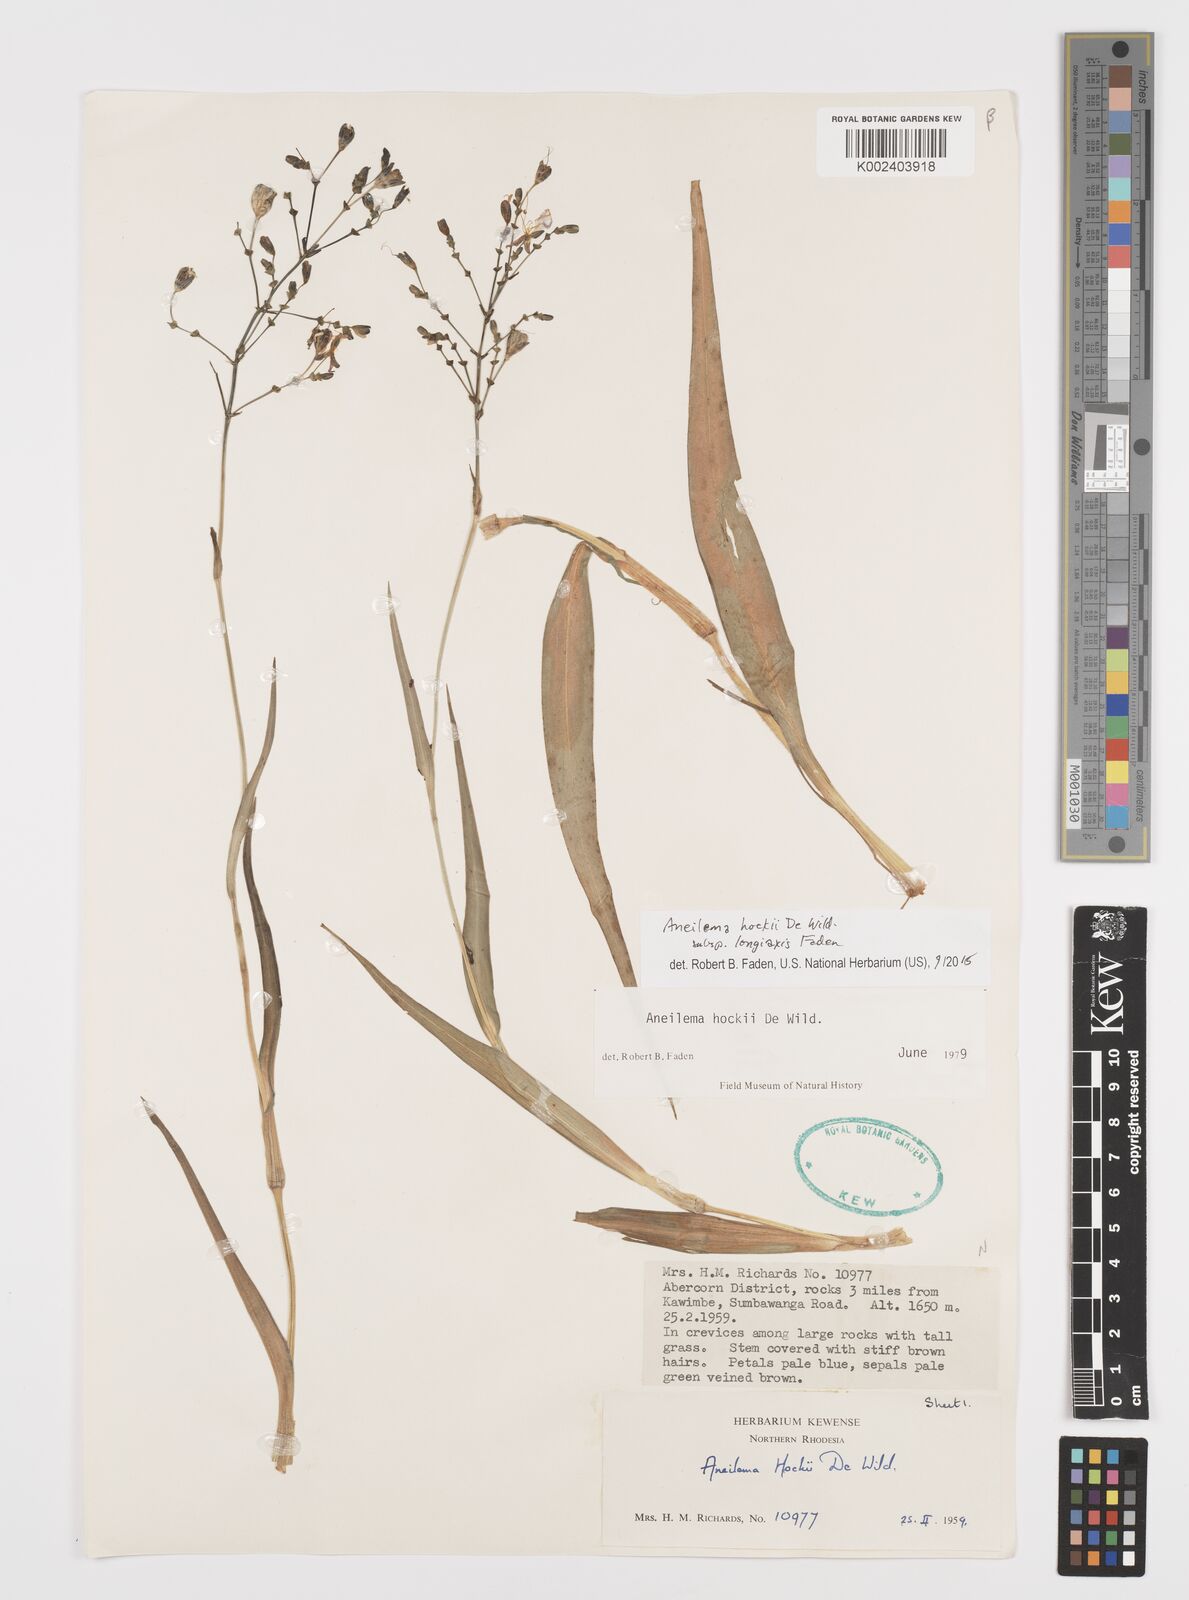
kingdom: Plantae
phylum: Tracheophyta
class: Liliopsida
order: Commelinales
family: Commelinaceae
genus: Aneilema
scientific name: Aneilema hockii
